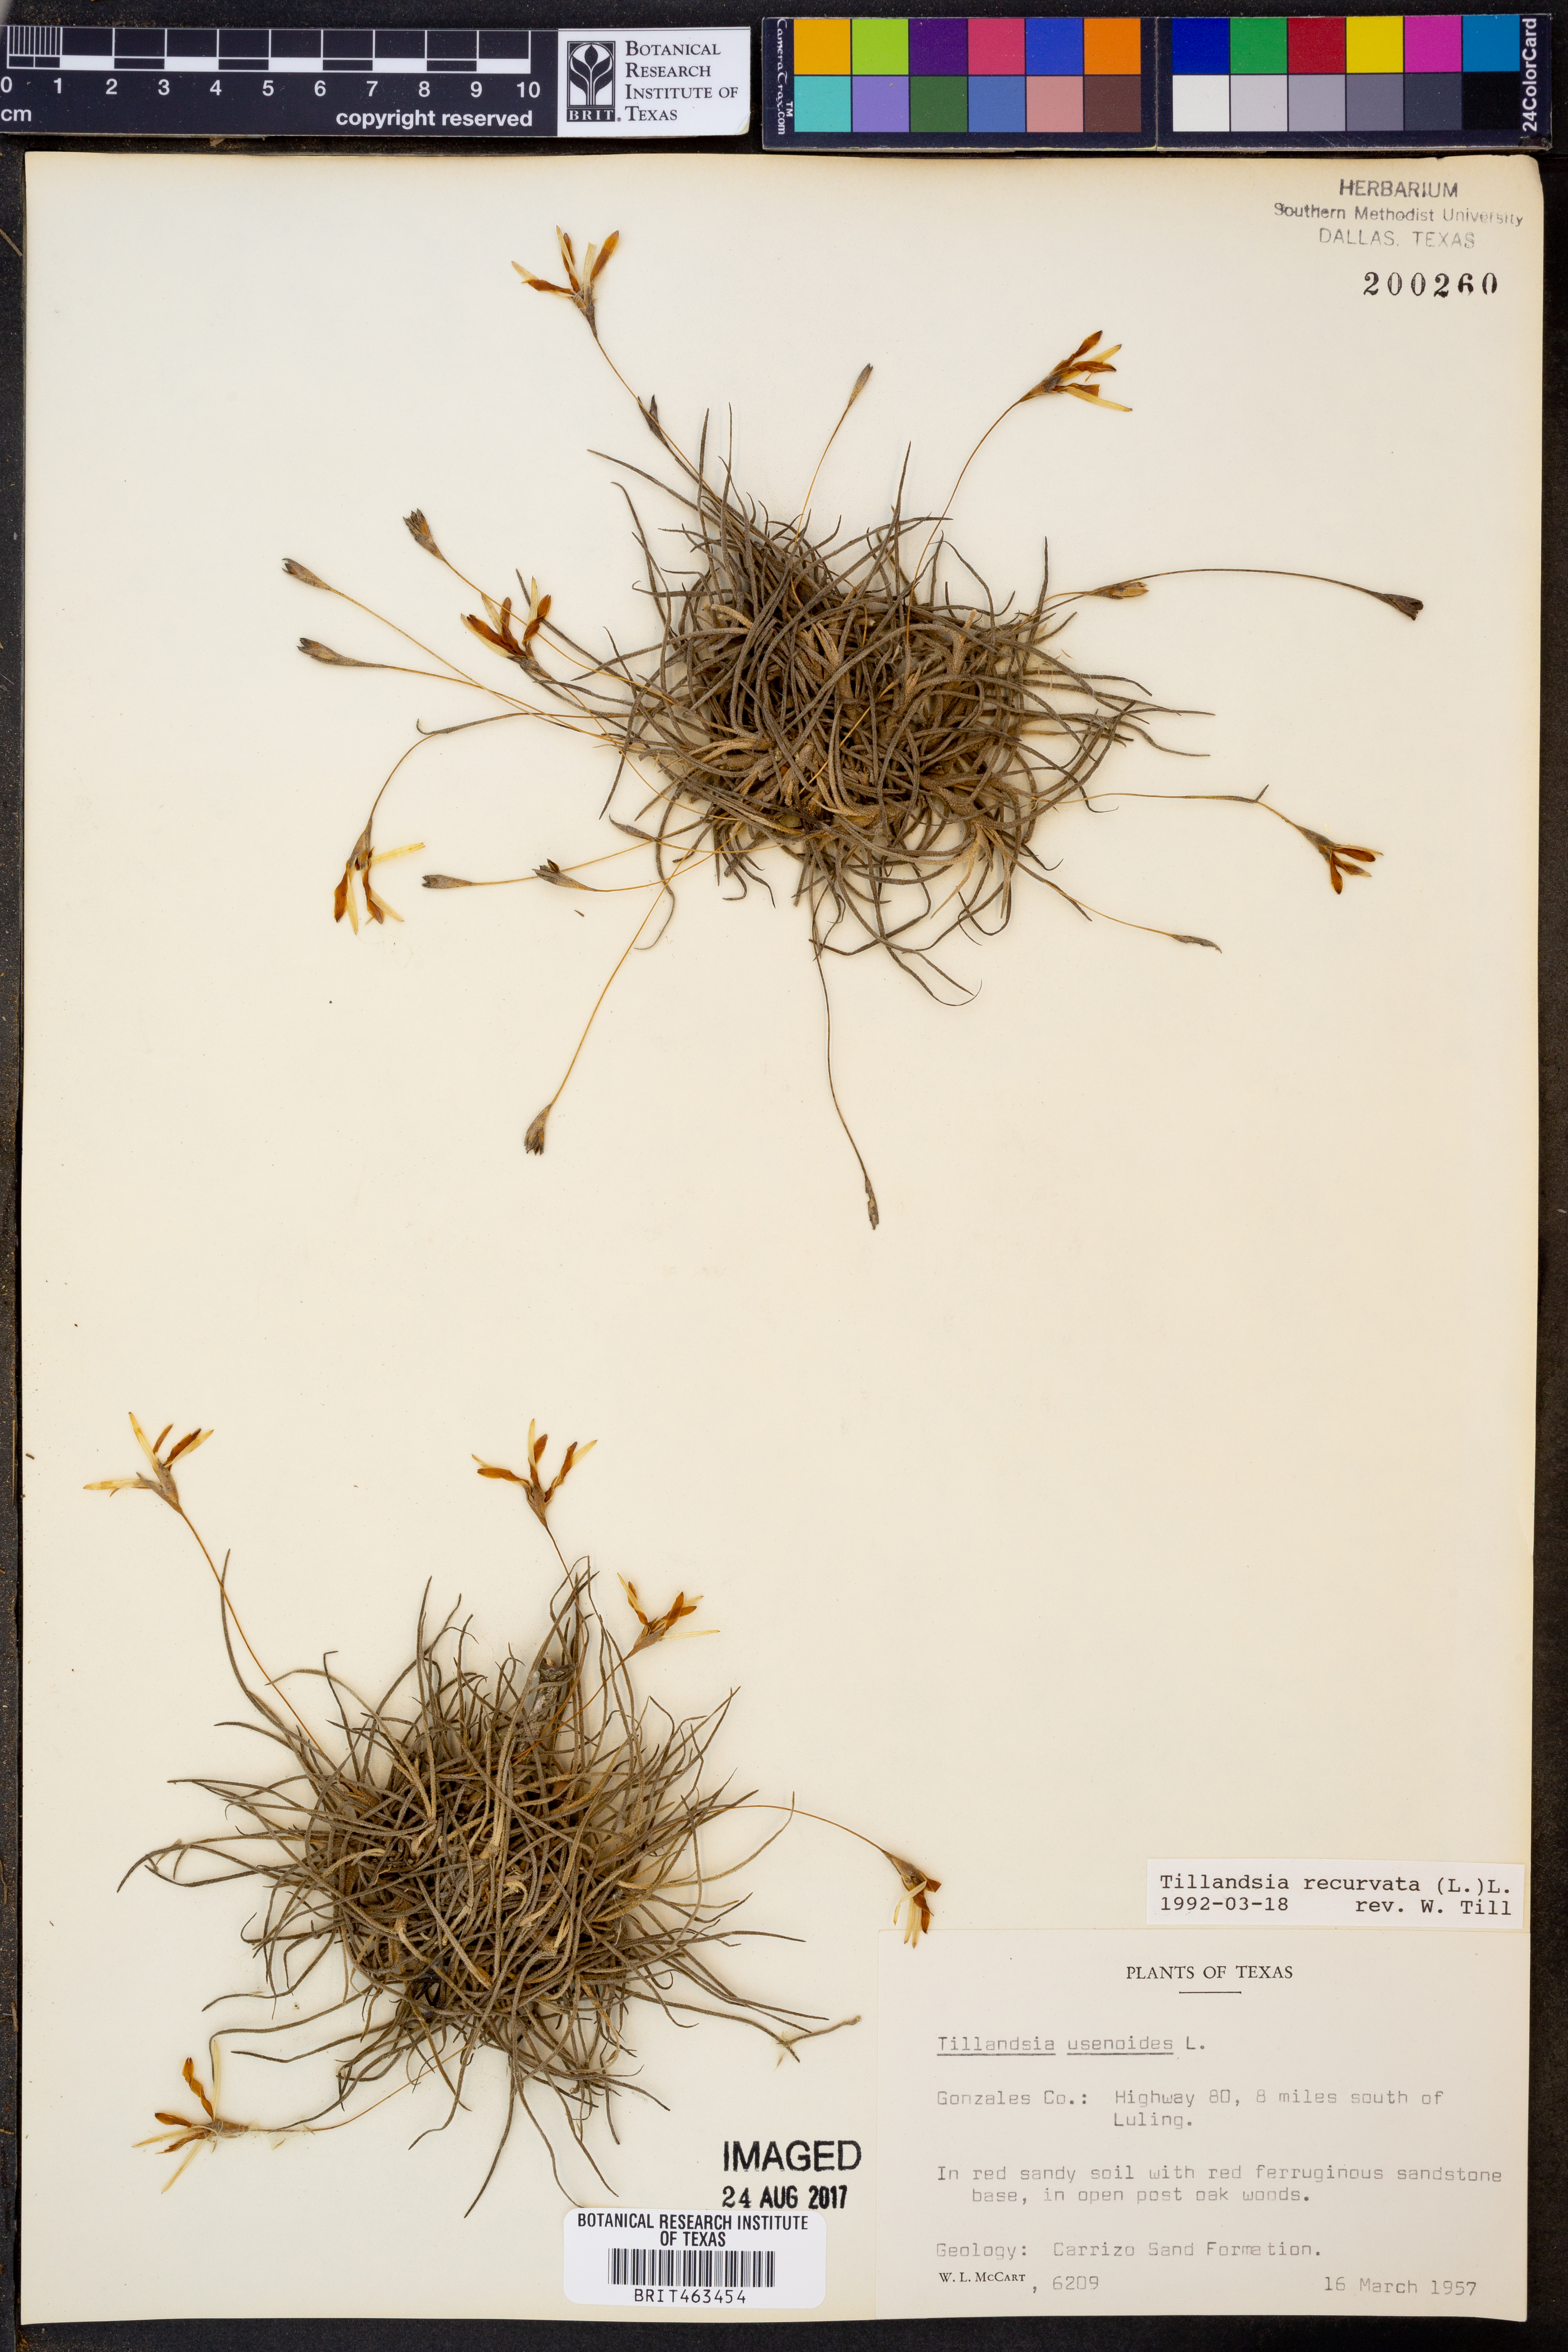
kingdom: Plantae
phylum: Tracheophyta
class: Liliopsida
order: Poales
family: Bromeliaceae
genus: Tillandsia
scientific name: Tillandsia usneoides
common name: Spanish moss
